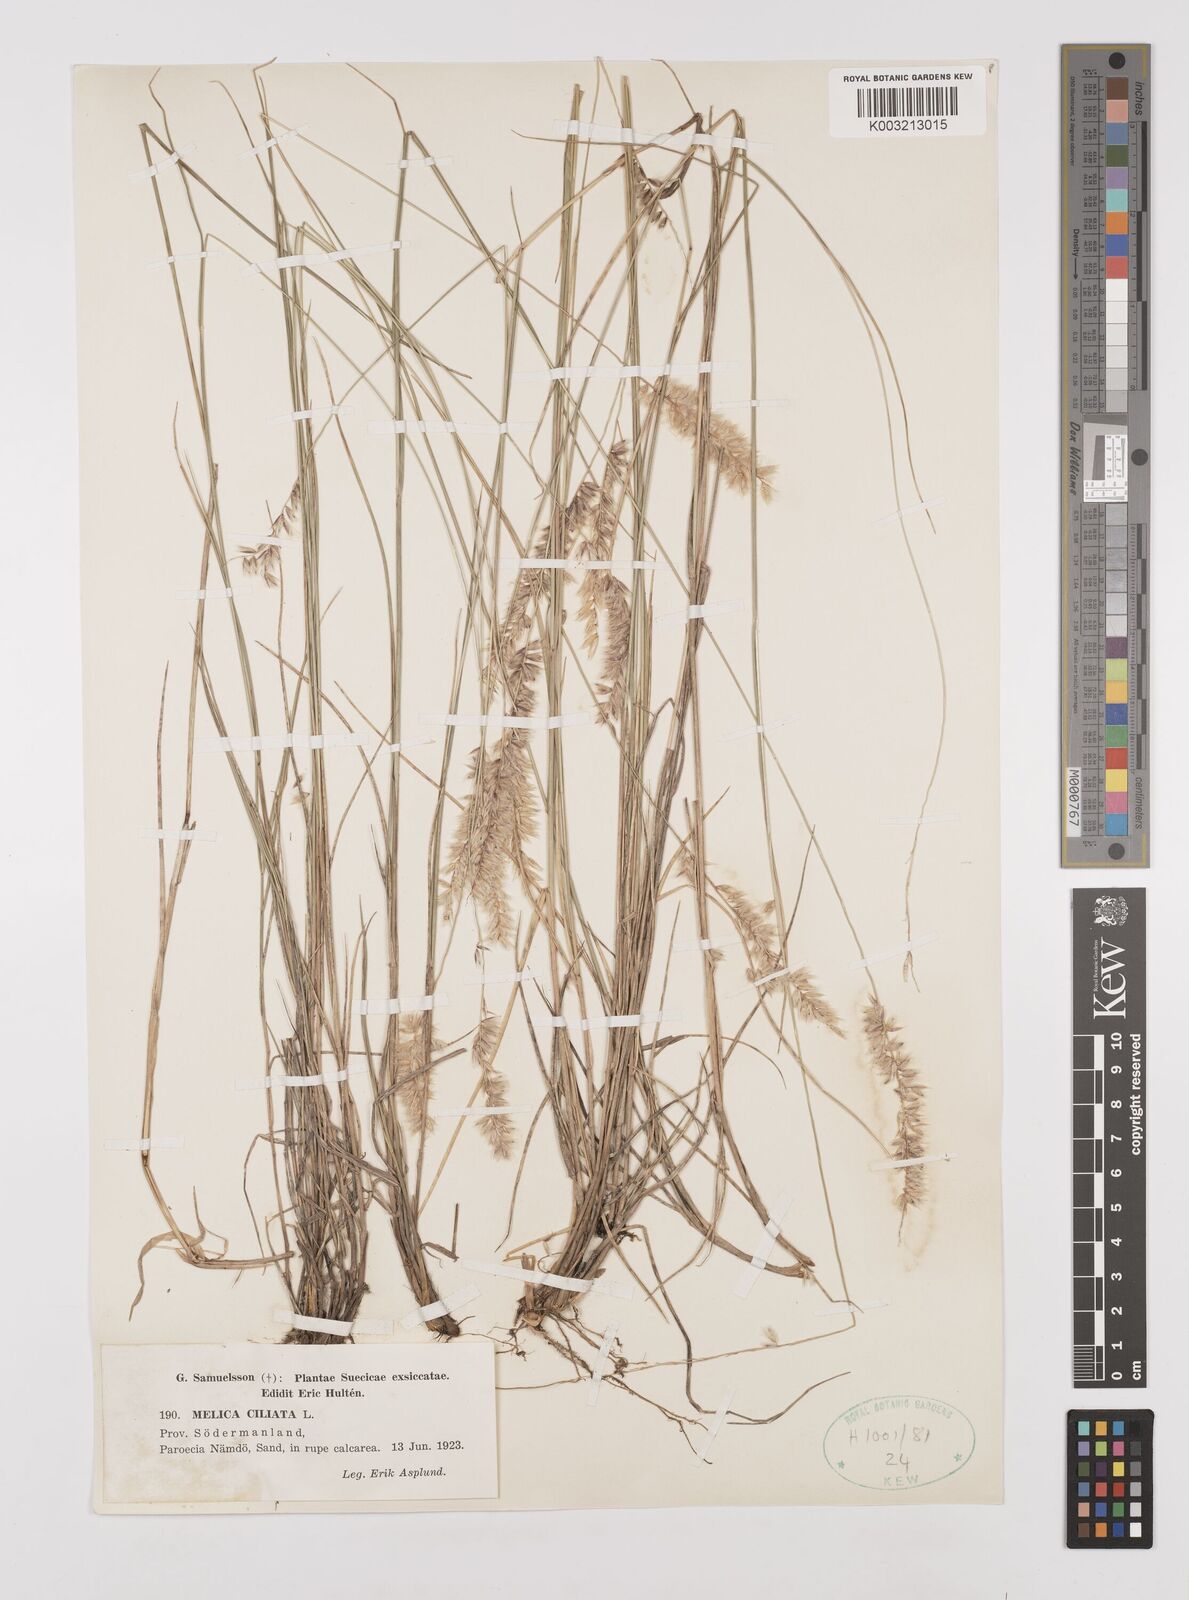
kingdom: Plantae
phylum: Tracheophyta
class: Liliopsida
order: Poales
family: Poaceae
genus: Melica
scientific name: Melica ciliata
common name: Hairy melicgrass
